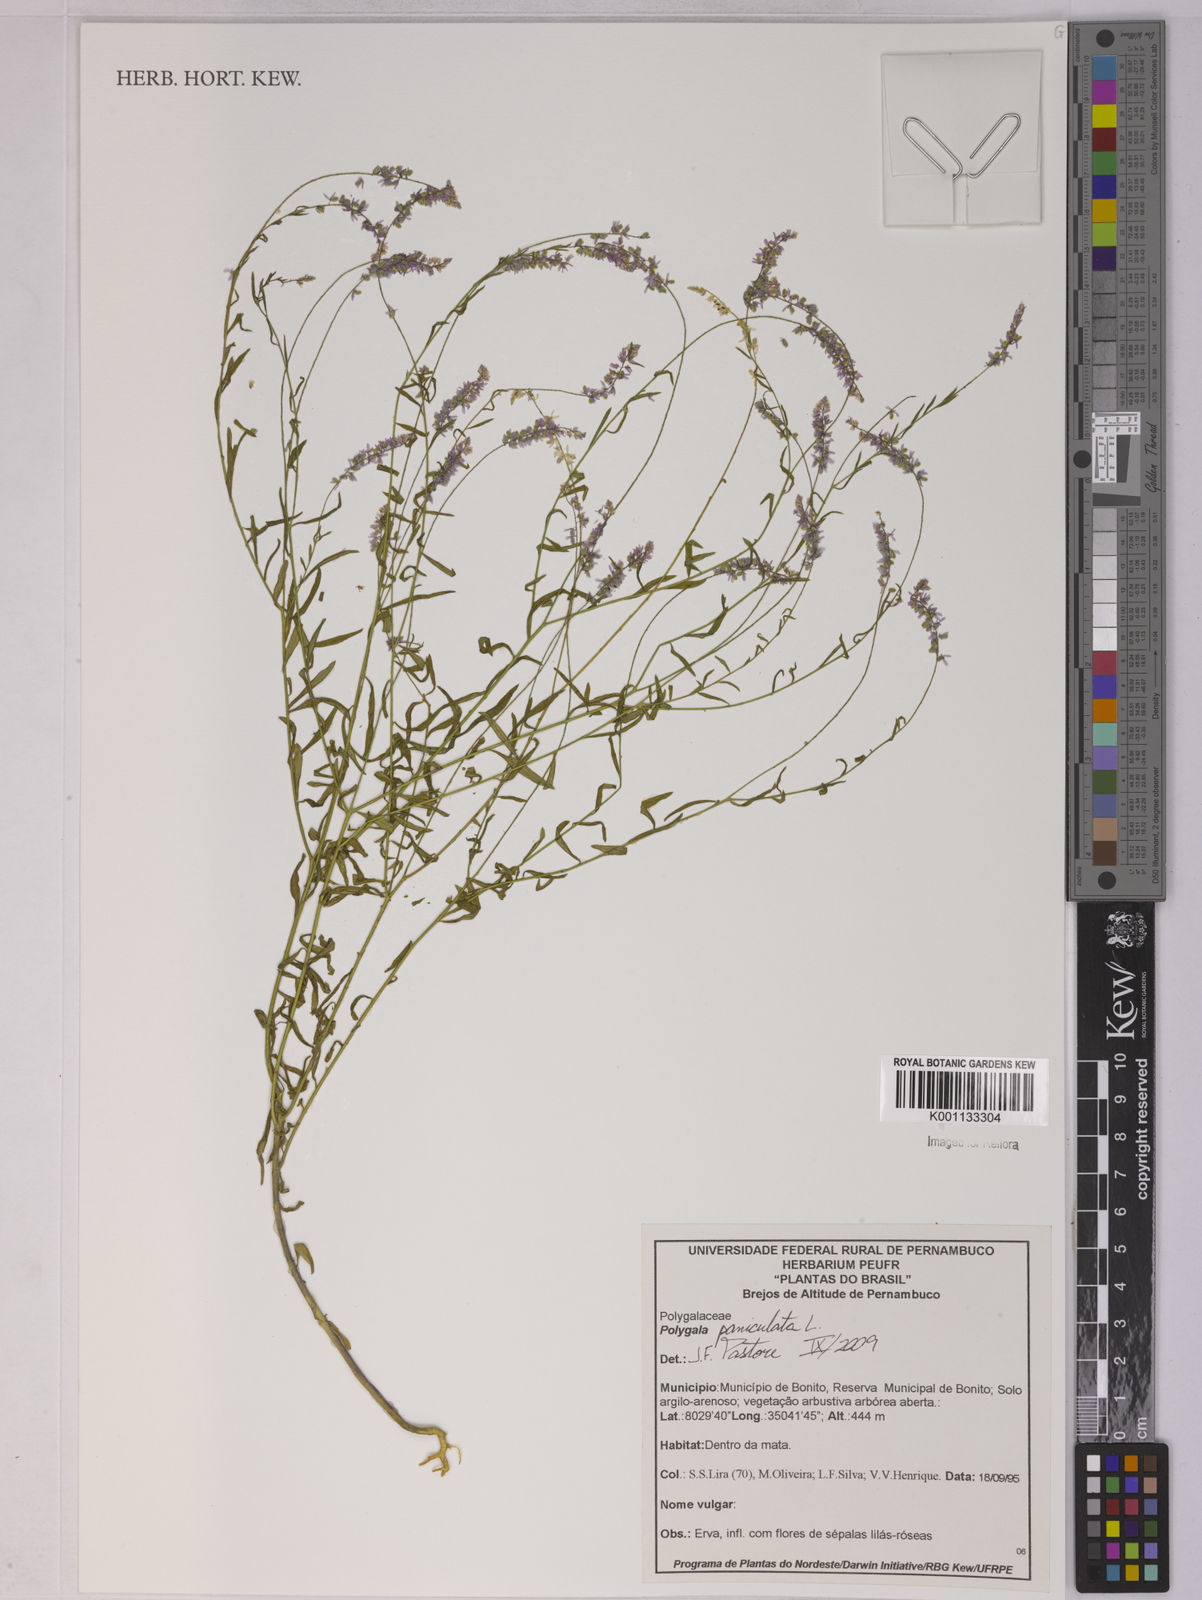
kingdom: Plantae
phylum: Tracheophyta
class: Magnoliopsida
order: Fabales
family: Polygalaceae
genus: Polygala
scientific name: Polygala paniculata
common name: Orosne
